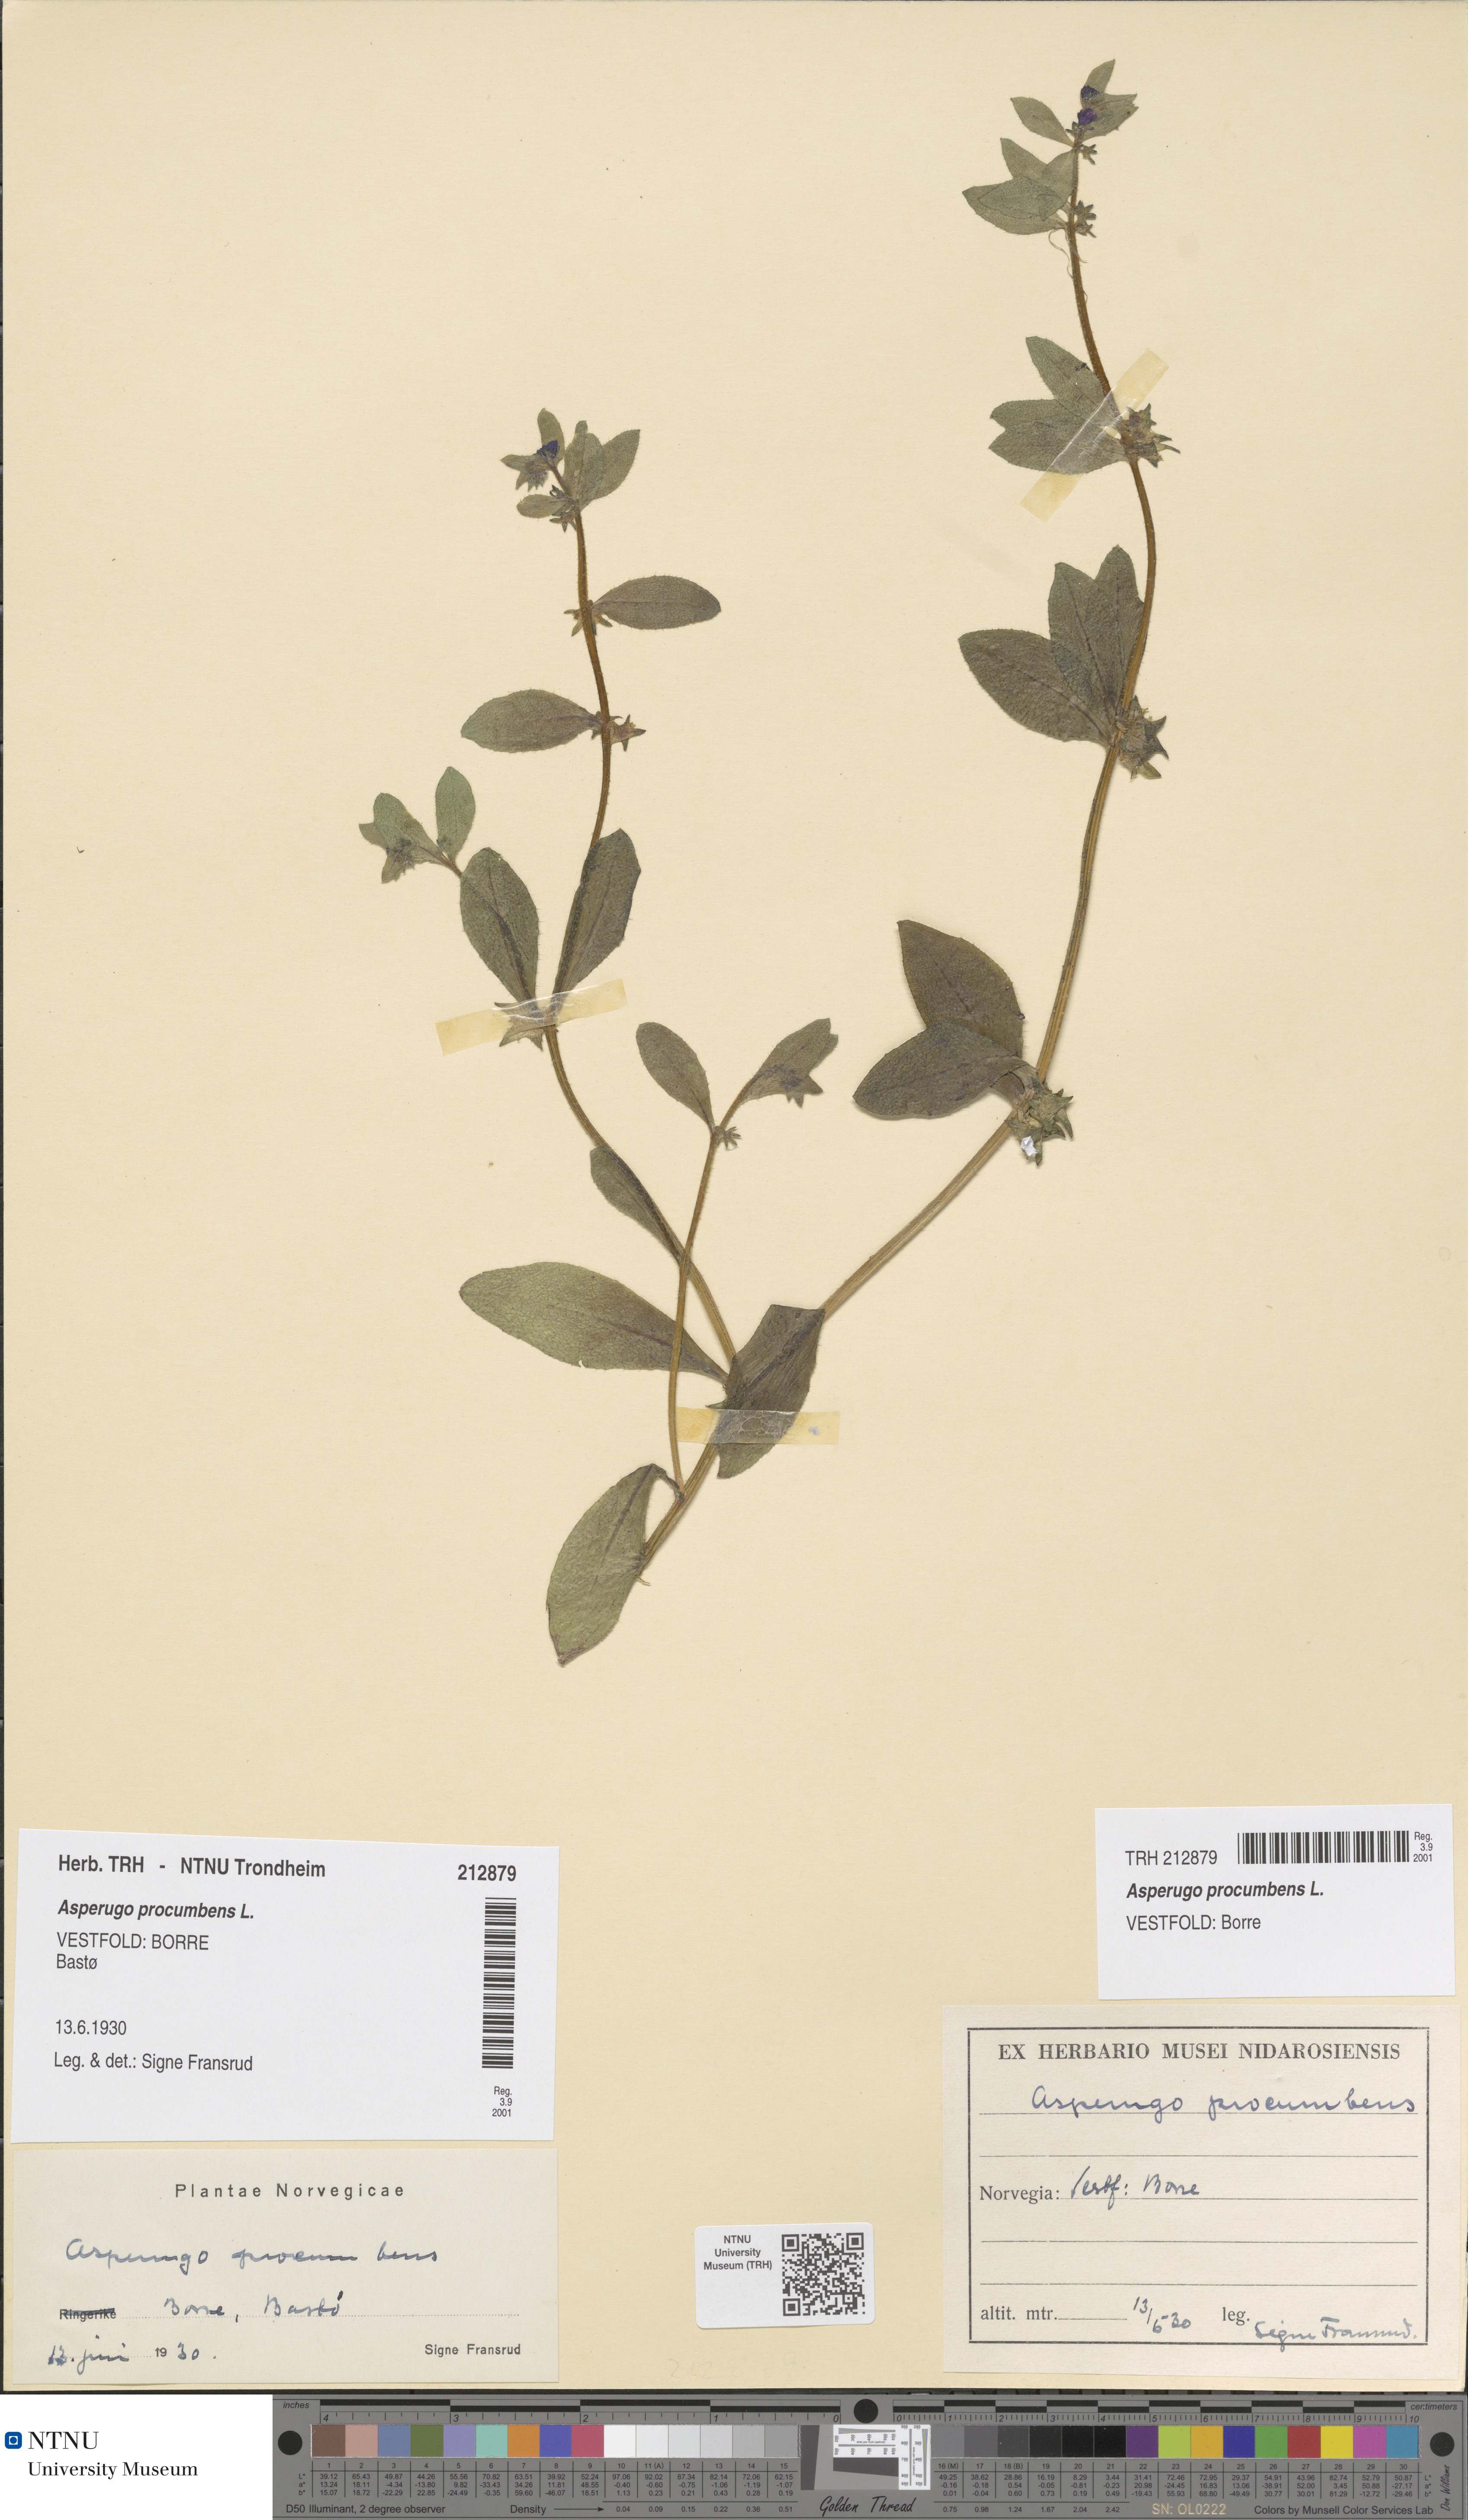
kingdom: Plantae
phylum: Tracheophyta
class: Magnoliopsida
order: Boraginales
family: Boraginaceae
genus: Asperugo
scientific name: Asperugo procumbens
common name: Madwort
